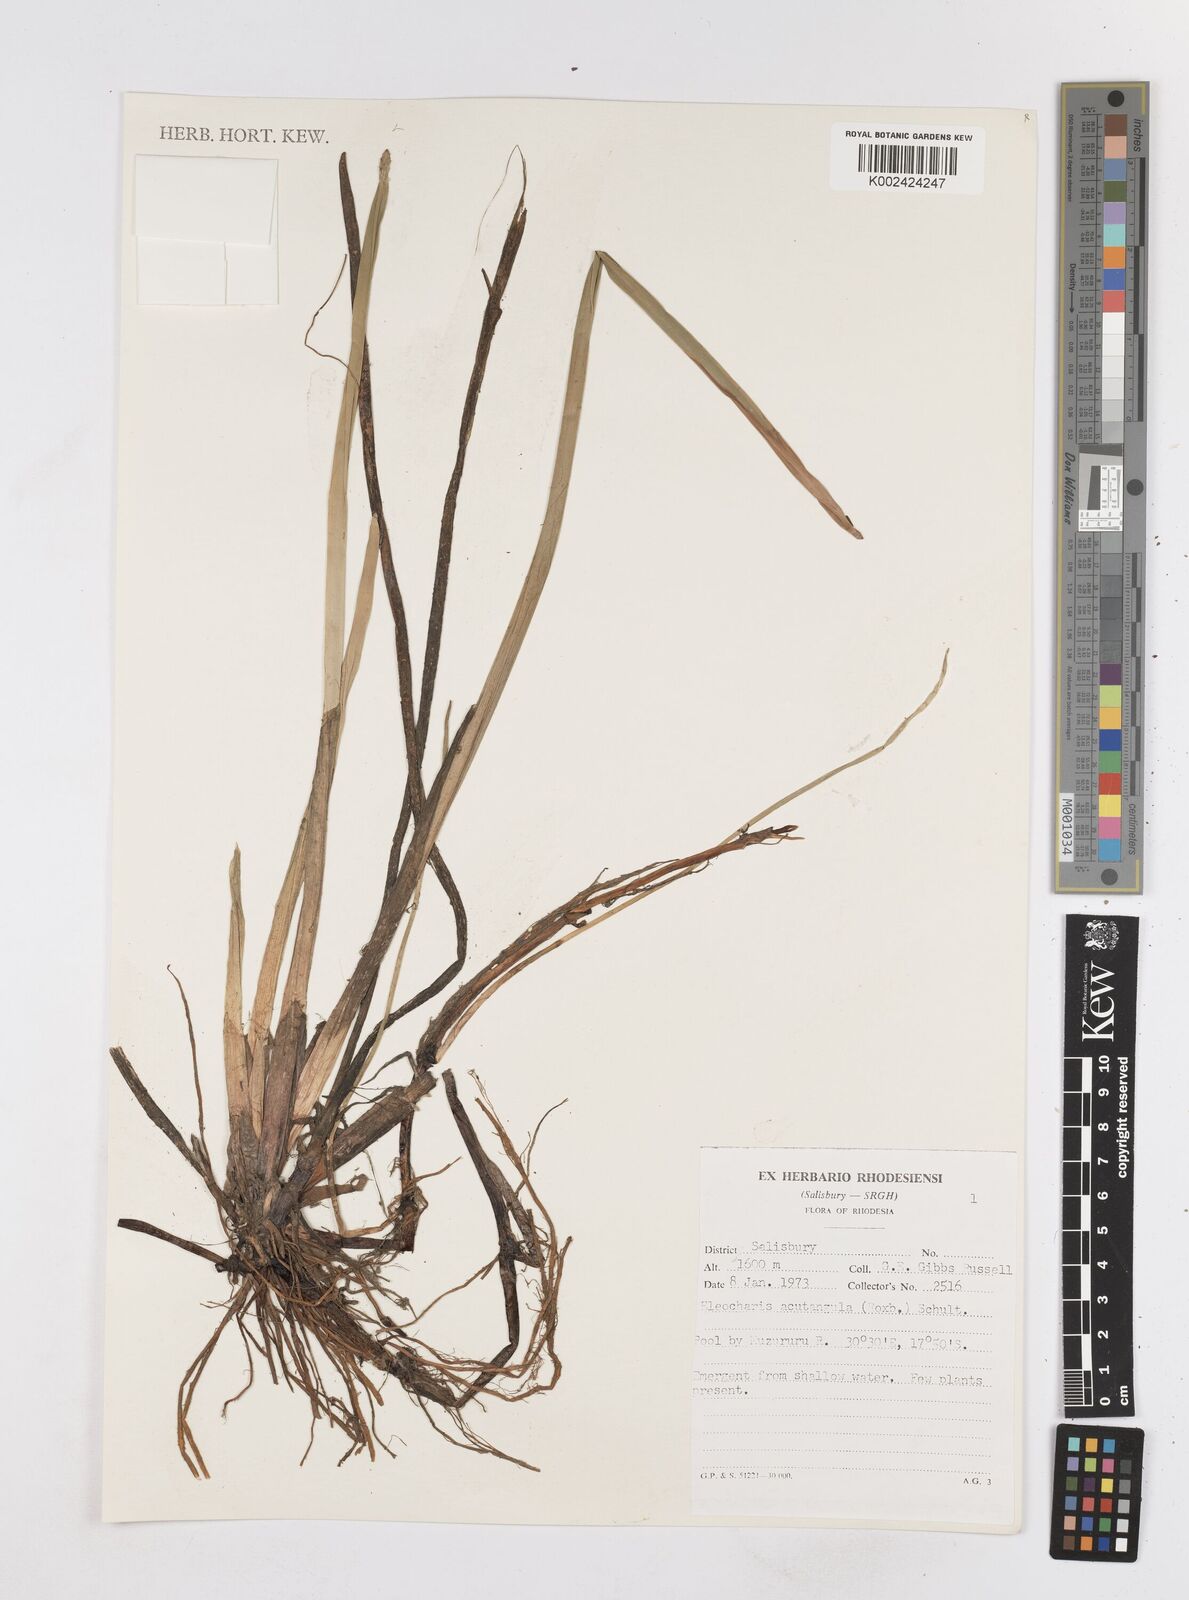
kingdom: Plantae
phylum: Tracheophyta
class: Liliopsida
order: Poales
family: Cyperaceae
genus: Eleocharis
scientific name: Eleocharis acutangula
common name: Acute spikerush
